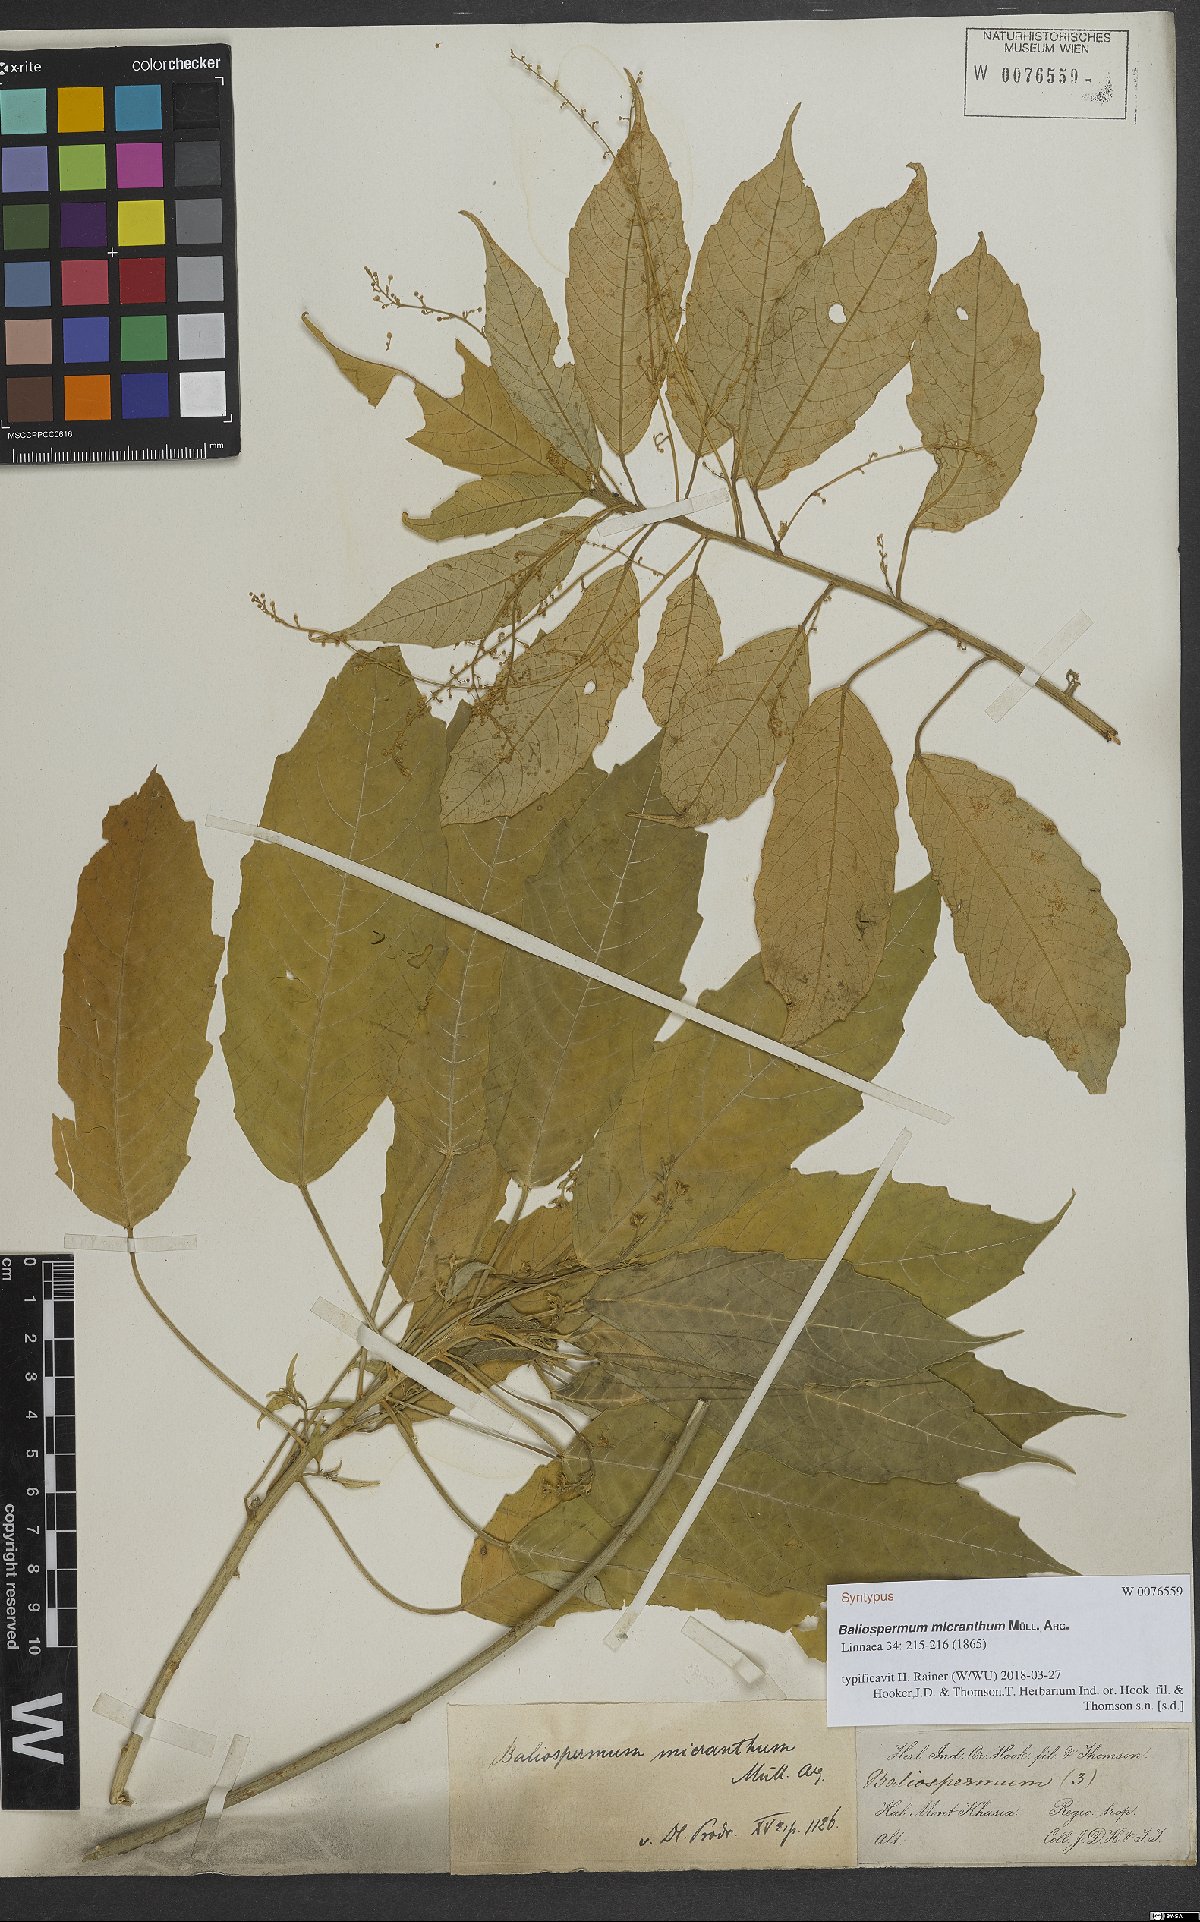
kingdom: Plantae
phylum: Tracheophyta
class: Magnoliopsida
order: Malpighiales
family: Euphorbiaceae
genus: Baliospermum
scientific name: Baliospermum calycinum
